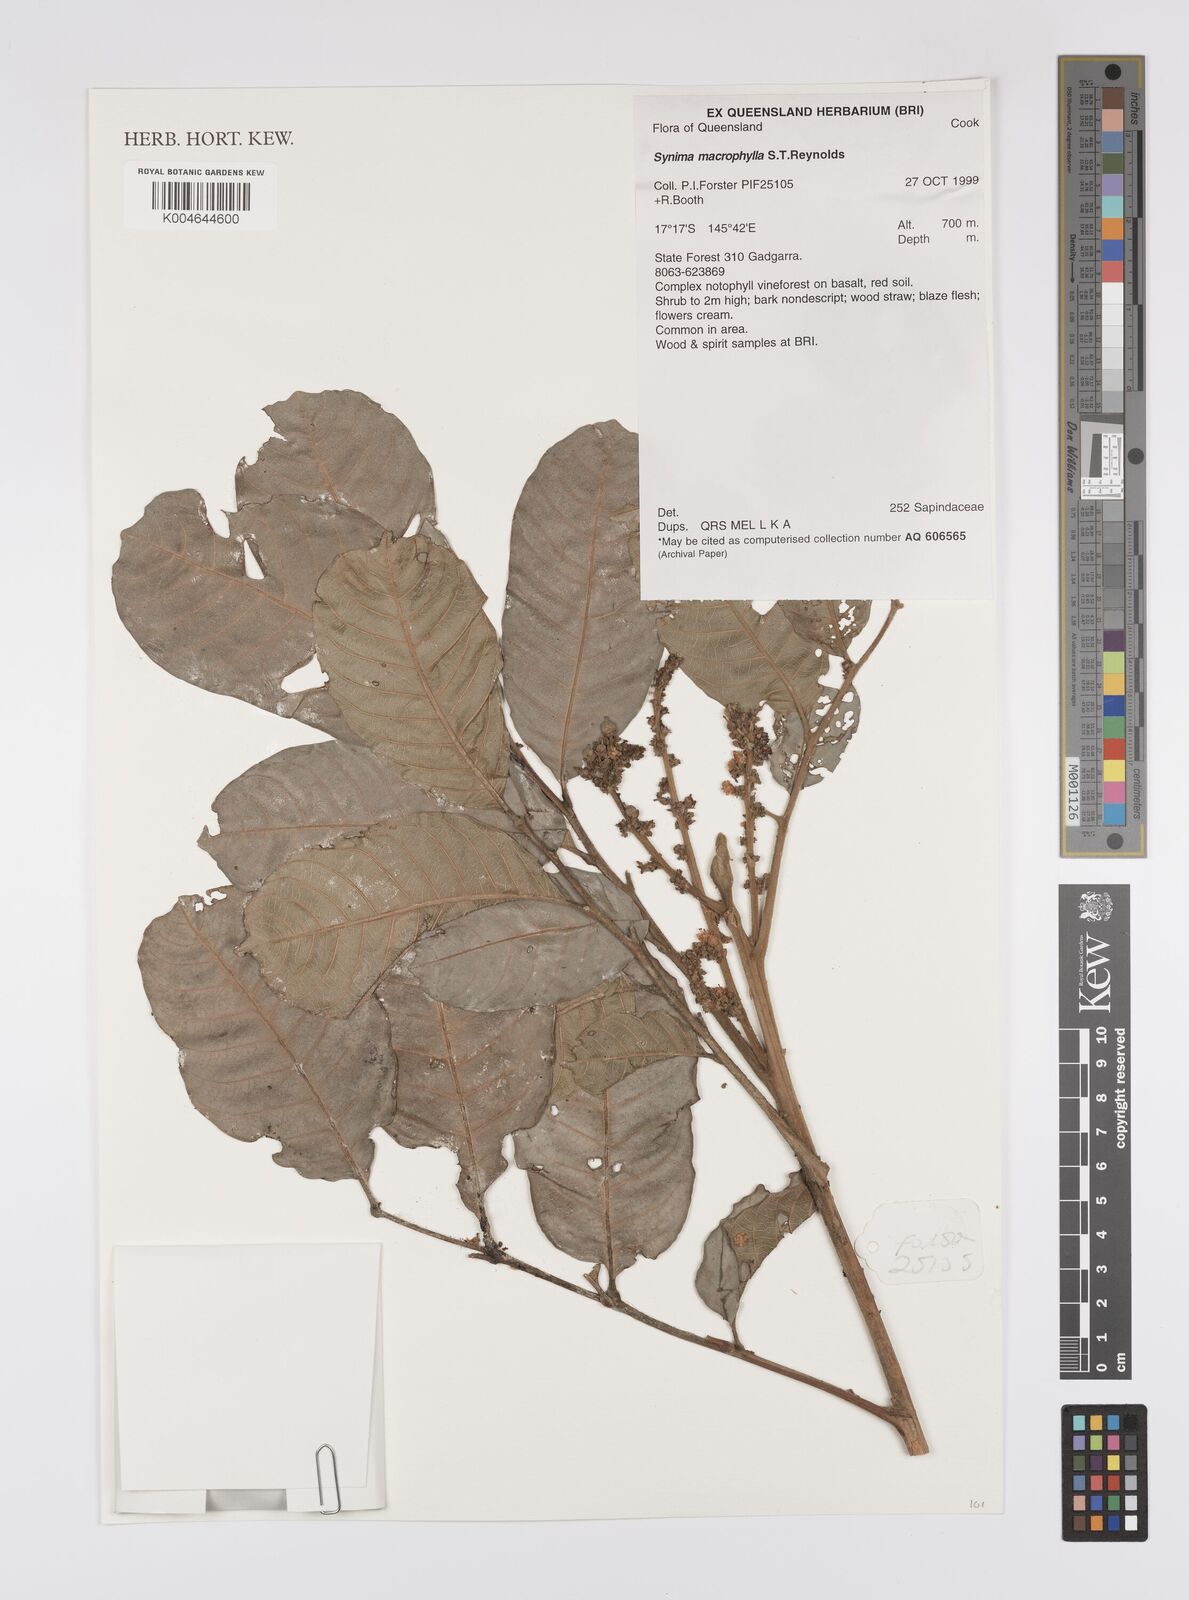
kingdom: Plantae
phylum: Tracheophyta
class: Magnoliopsida
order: Sapindales
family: Sapindaceae
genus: Synima
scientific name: Synima macrophylla
